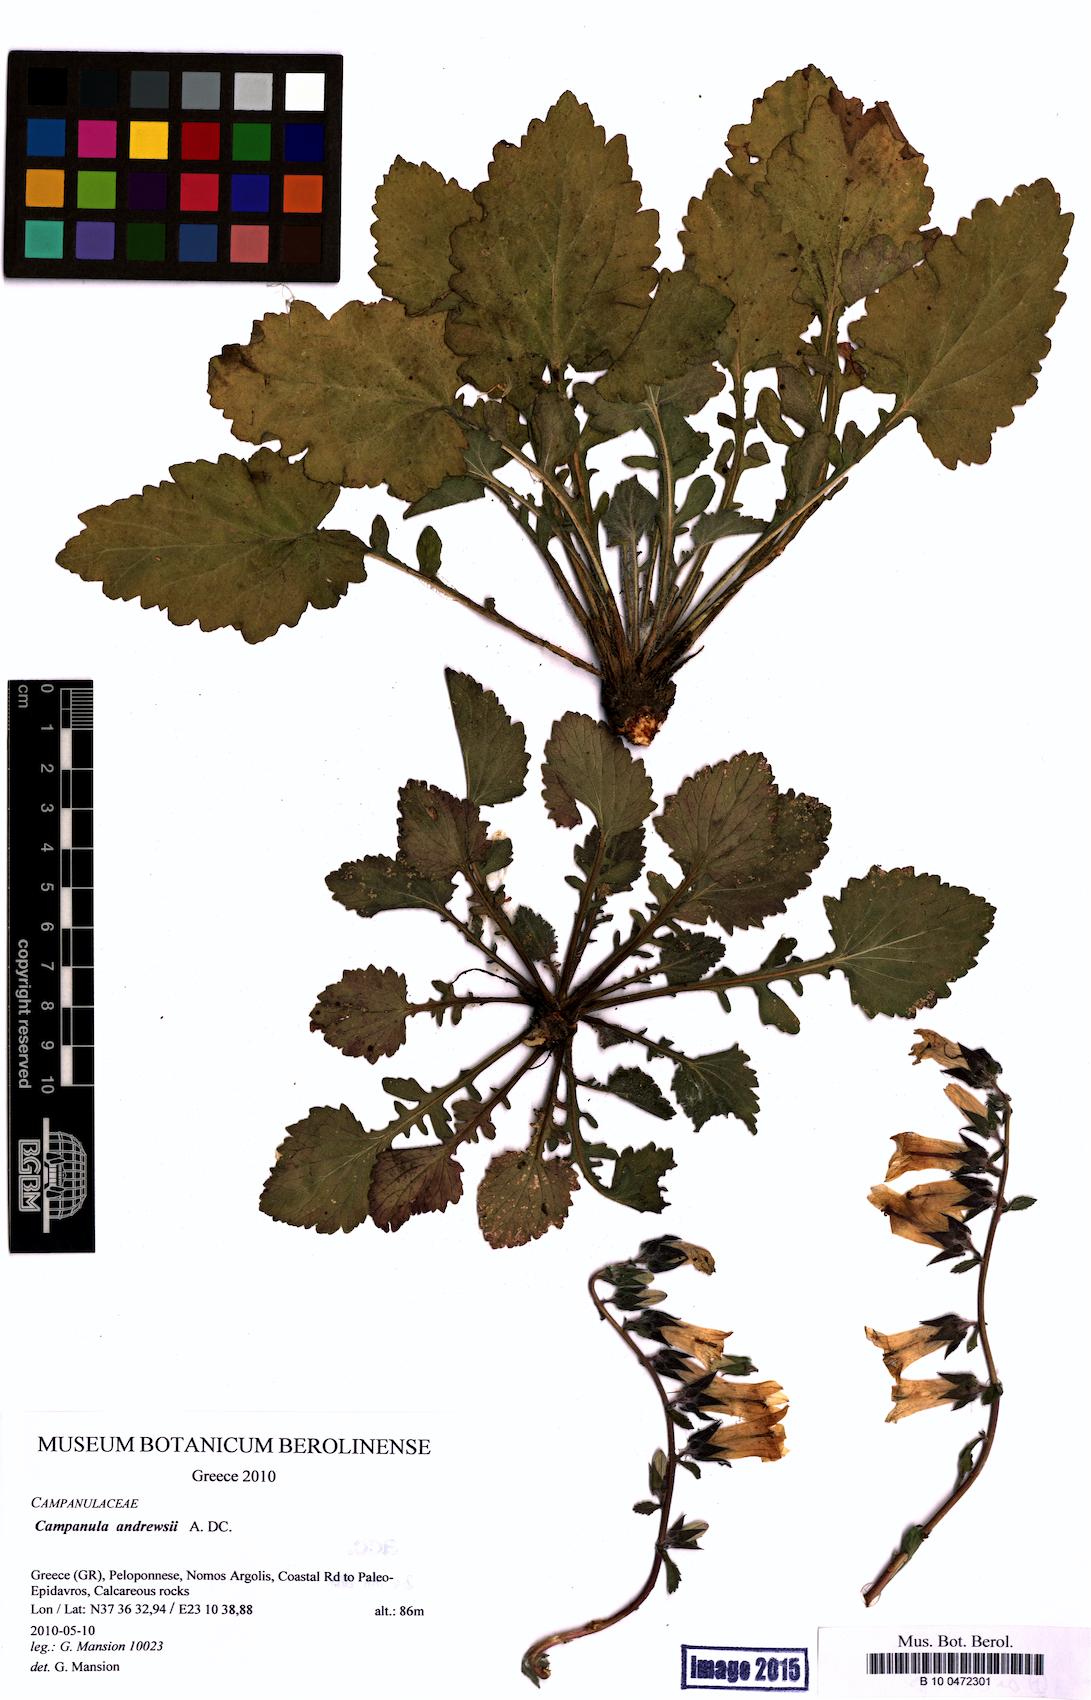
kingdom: Plantae
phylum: Tracheophyta
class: Magnoliopsida
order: Asterales
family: Campanulaceae
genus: Campanula
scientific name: Campanula andrewsii
